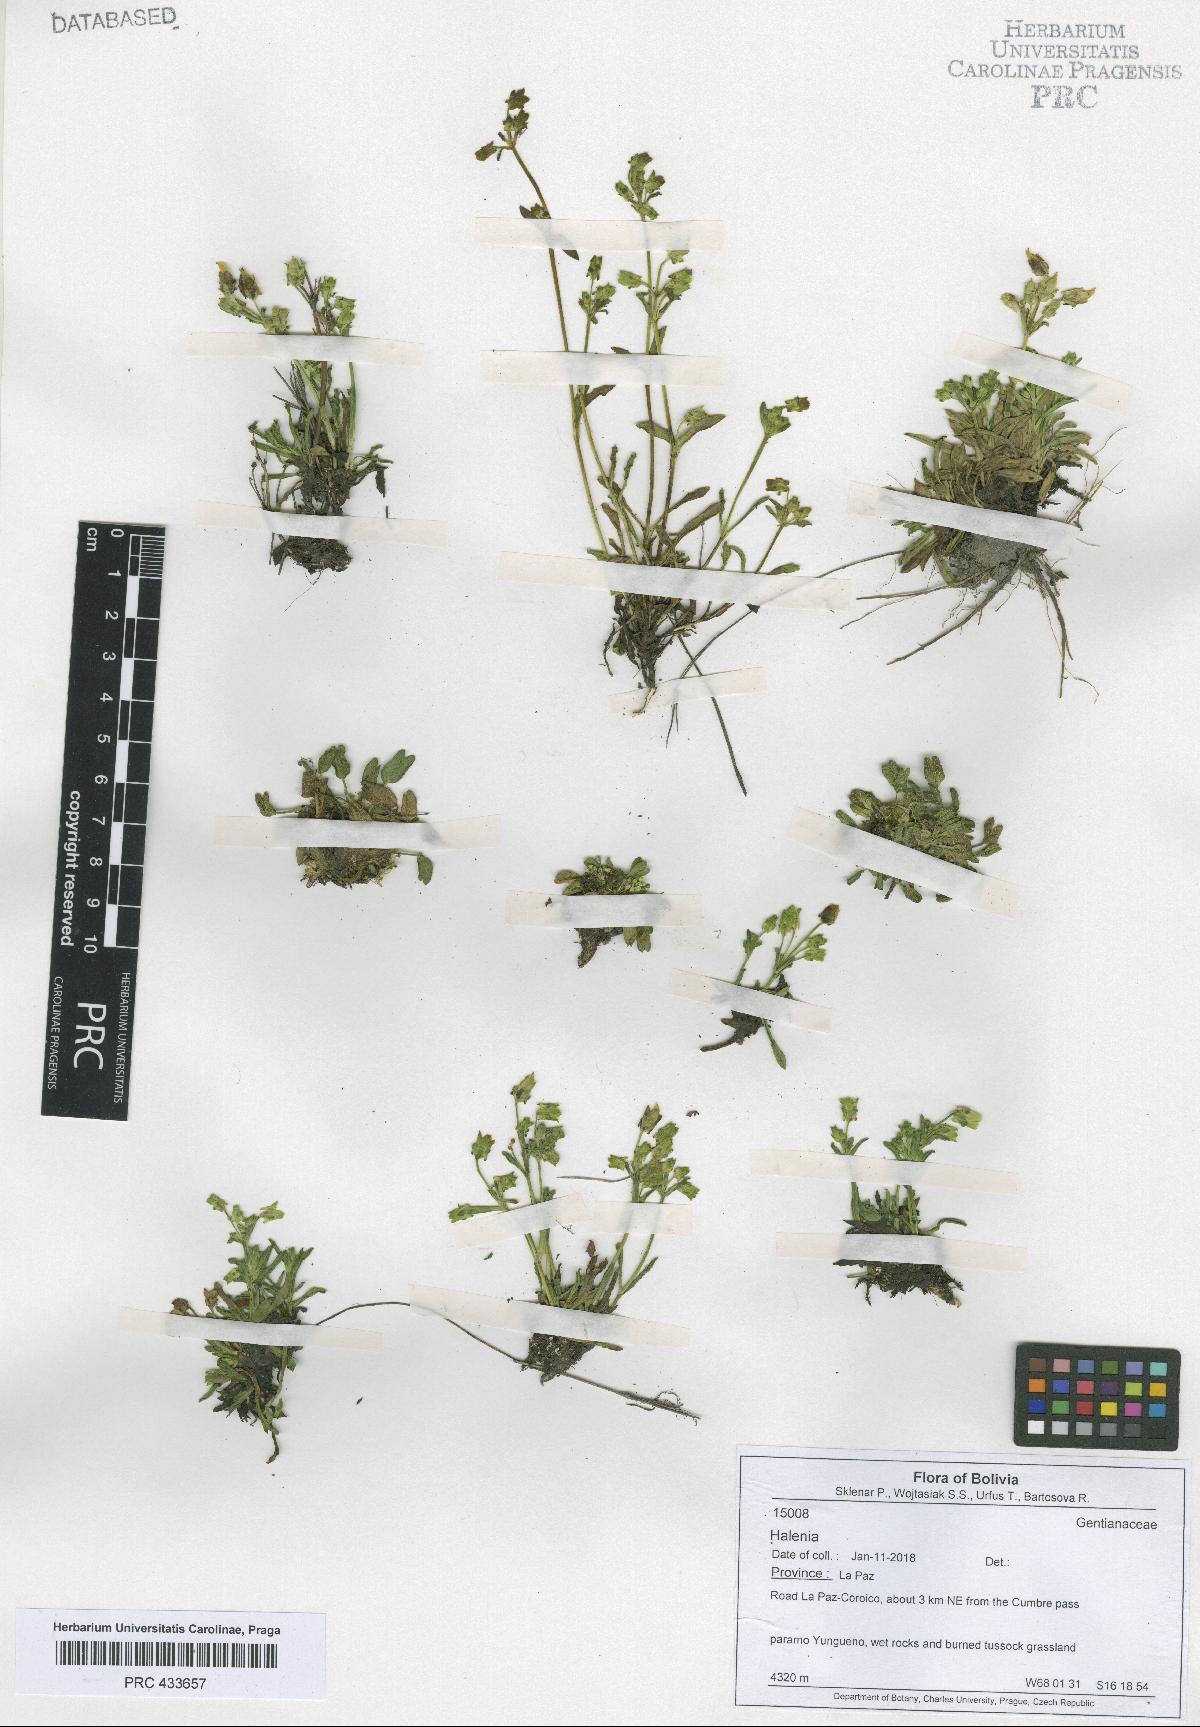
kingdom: Plantae
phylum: Tracheophyta
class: Magnoliopsida
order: Gentianales
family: Gentianaceae
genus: Halenia
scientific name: Halenia
